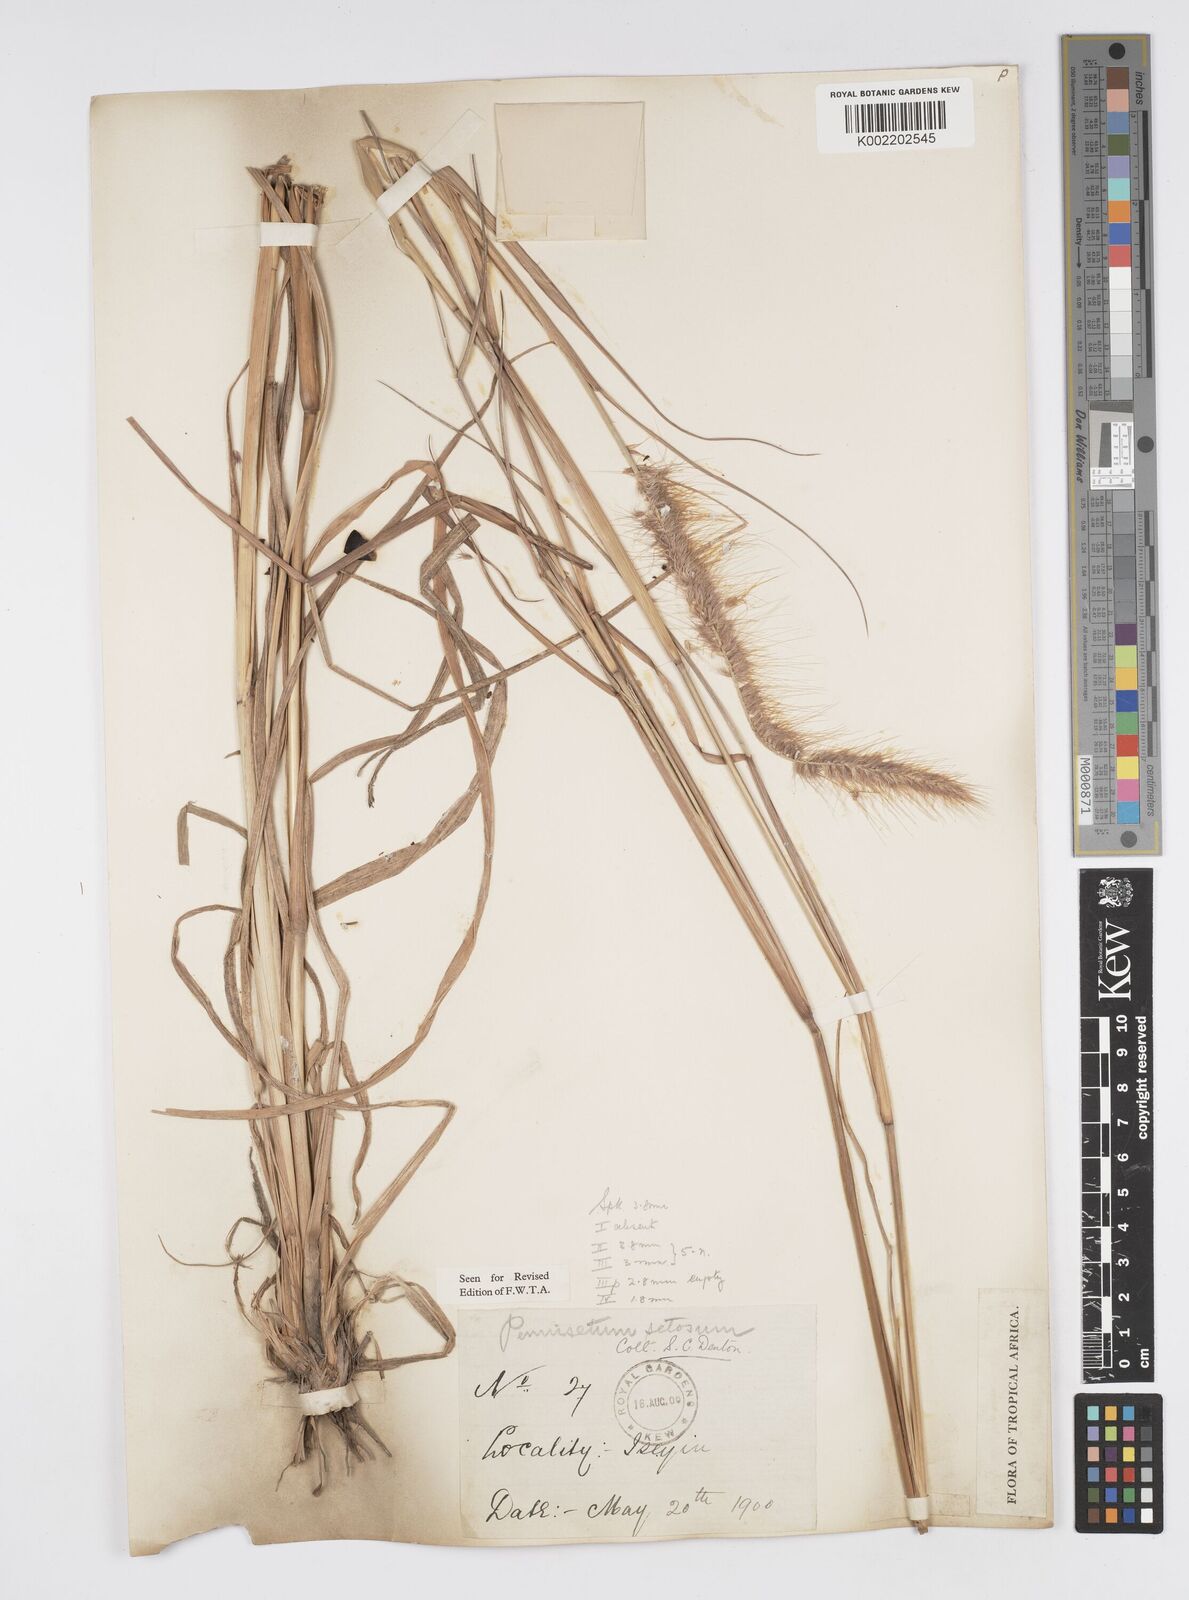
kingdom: Plantae
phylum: Tracheophyta
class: Liliopsida
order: Poales
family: Poaceae
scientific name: Poaceae
